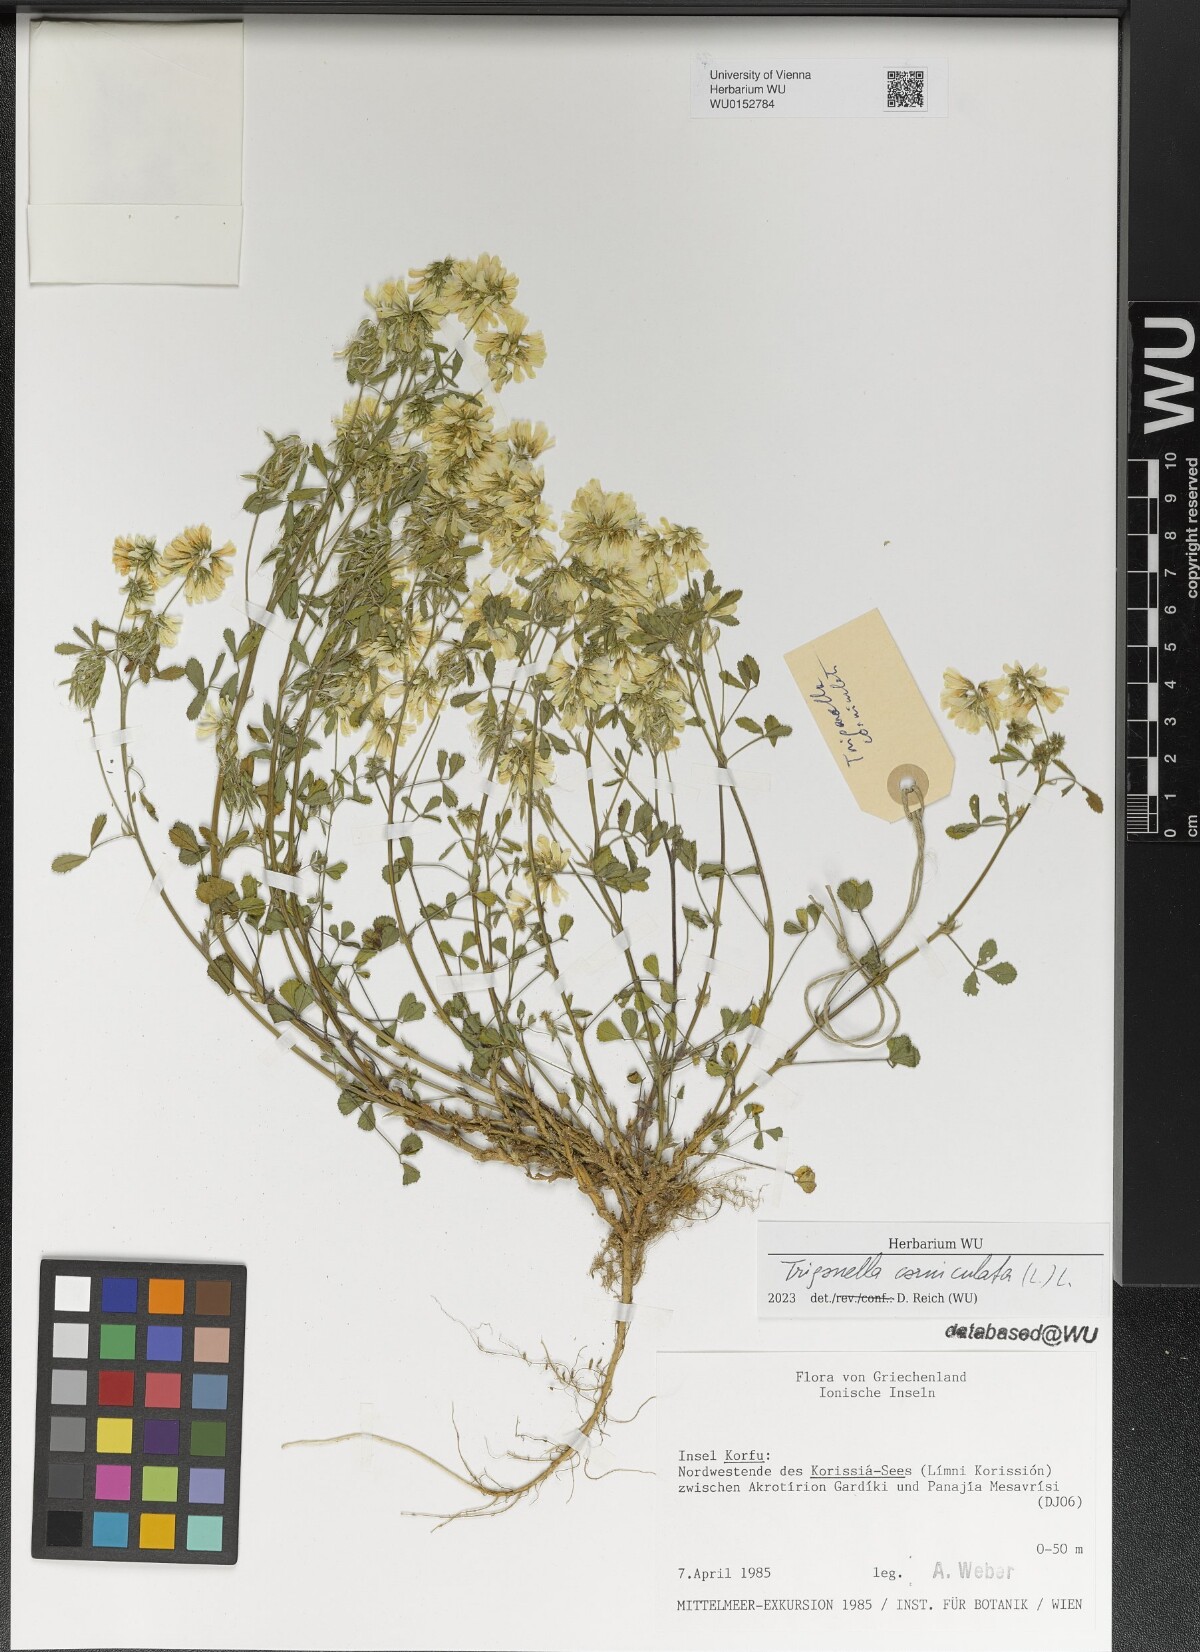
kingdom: Plantae
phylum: Tracheophyta
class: Magnoliopsida
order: Fabales
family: Fabaceae
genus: Trigonella
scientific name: Trigonella balansae
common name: Sickle-fruited fenugreek
